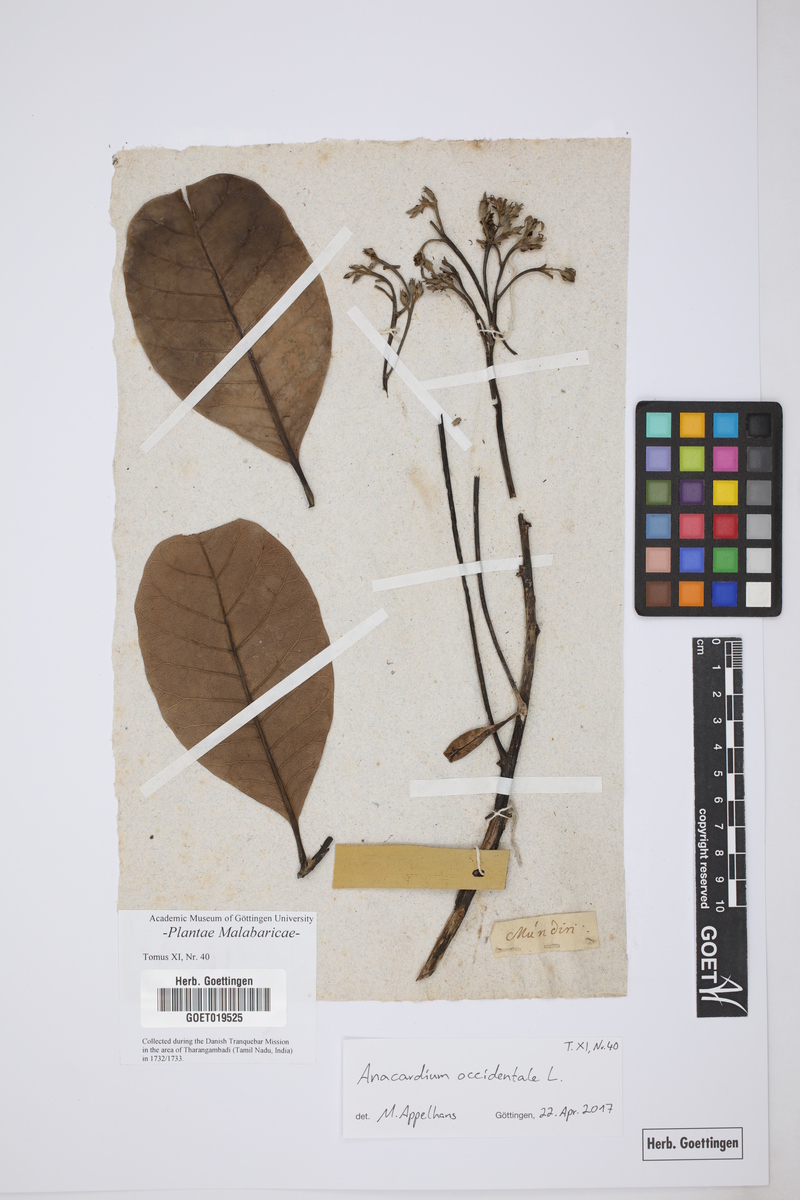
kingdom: Plantae
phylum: Tracheophyta
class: Magnoliopsida
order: Sapindales
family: Anacardiaceae
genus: Anacardium
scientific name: Anacardium occidentale
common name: Cashew
